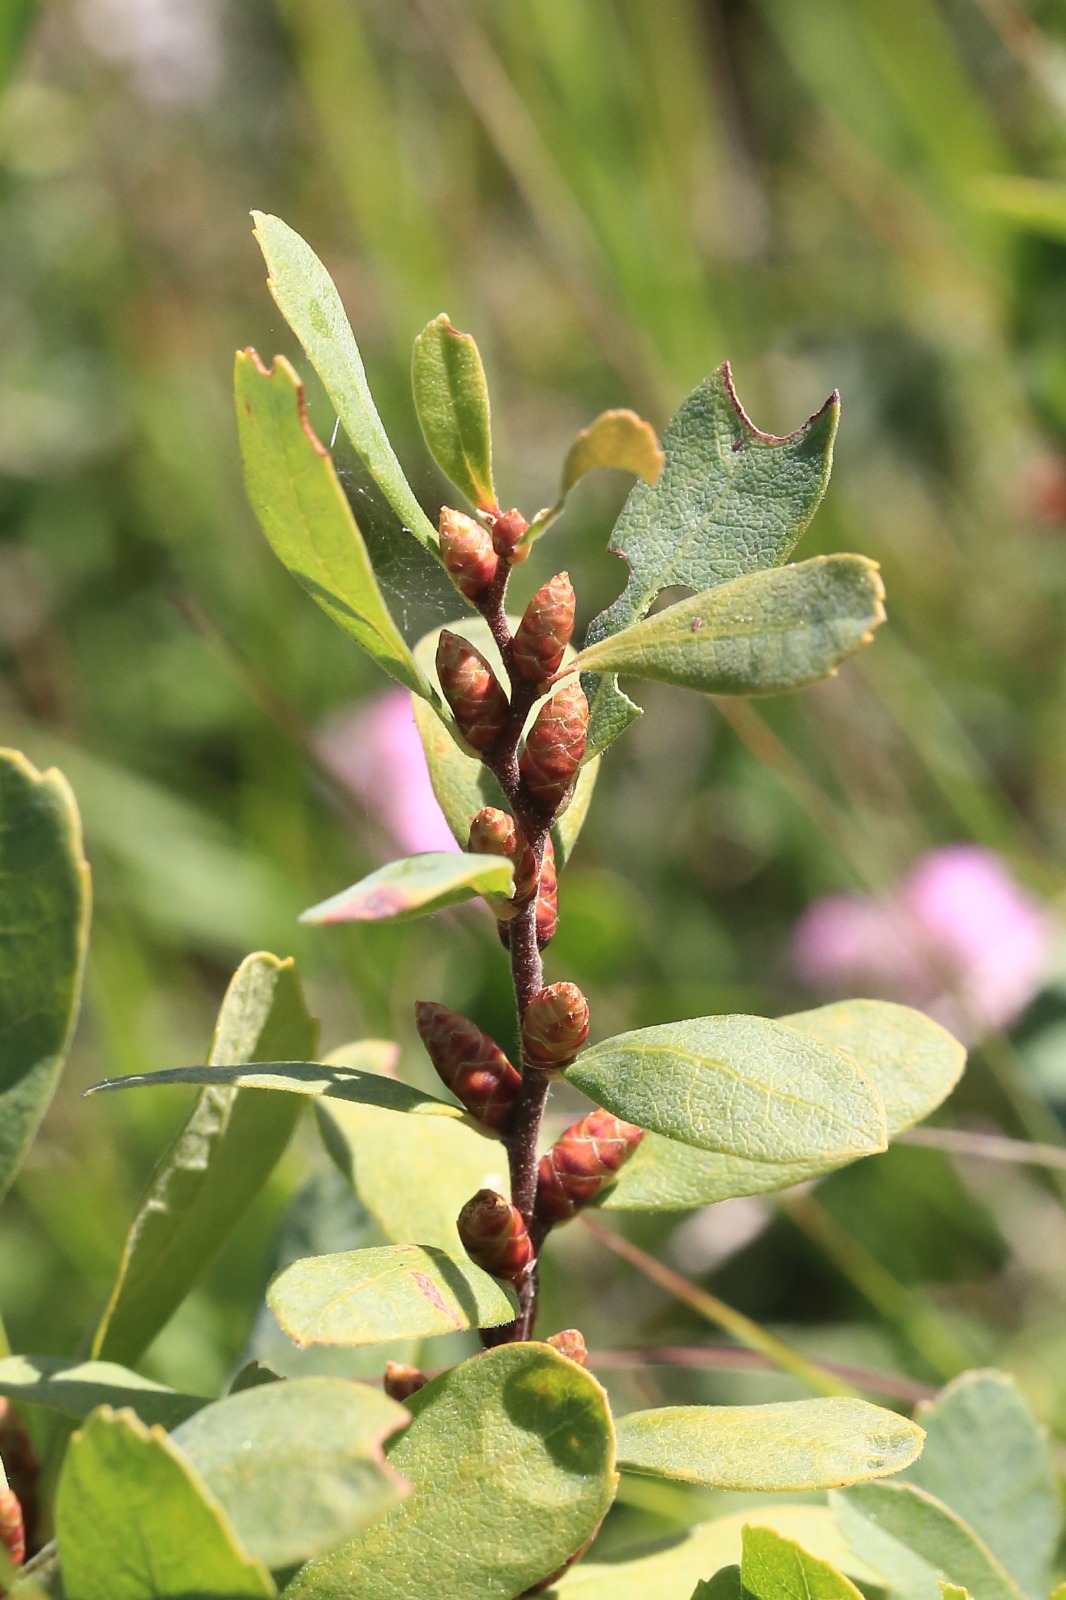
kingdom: Plantae
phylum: Tracheophyta
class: Magnoliopsida
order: Fagales
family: Myricaceae
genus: Myrica
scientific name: Myrica gale
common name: Pors
